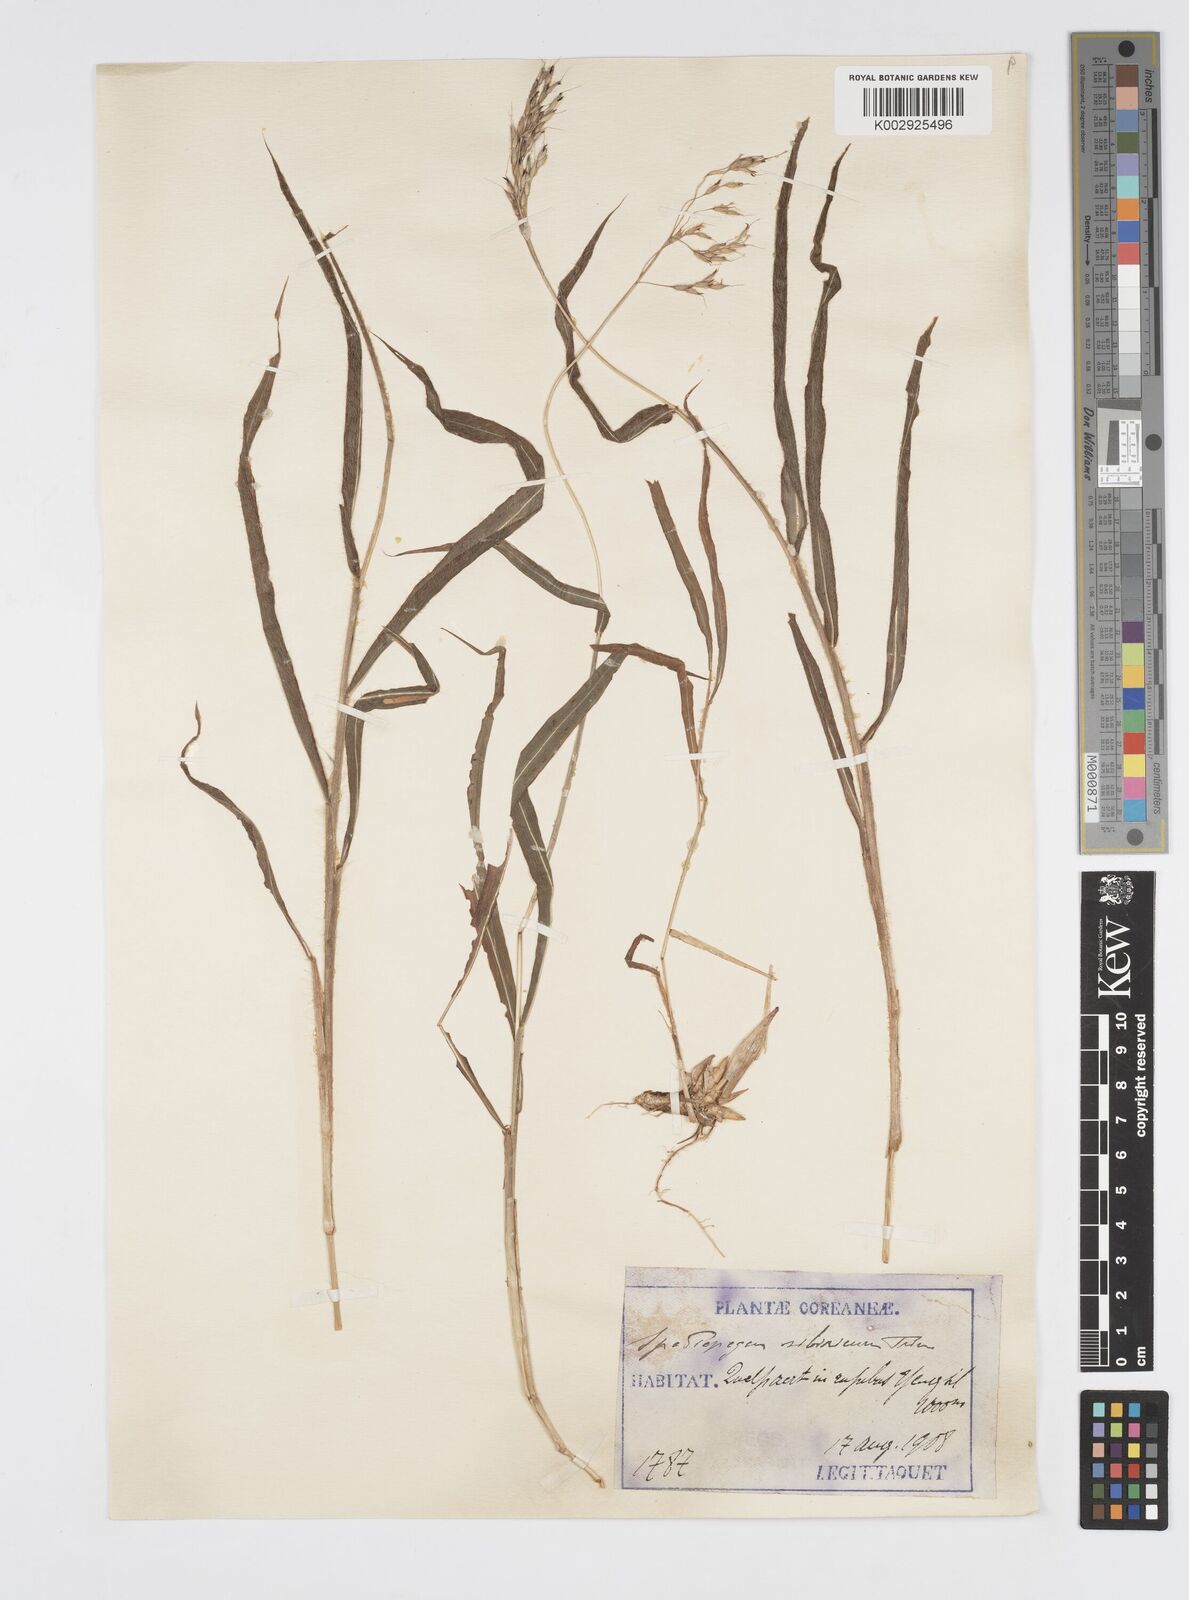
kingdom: Plantae
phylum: Tracheophyta
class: Liliopsida
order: Poales
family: Poaceae
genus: Spodiopogon
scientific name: Spodiopogon sibiricus
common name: Siberian graybeard
